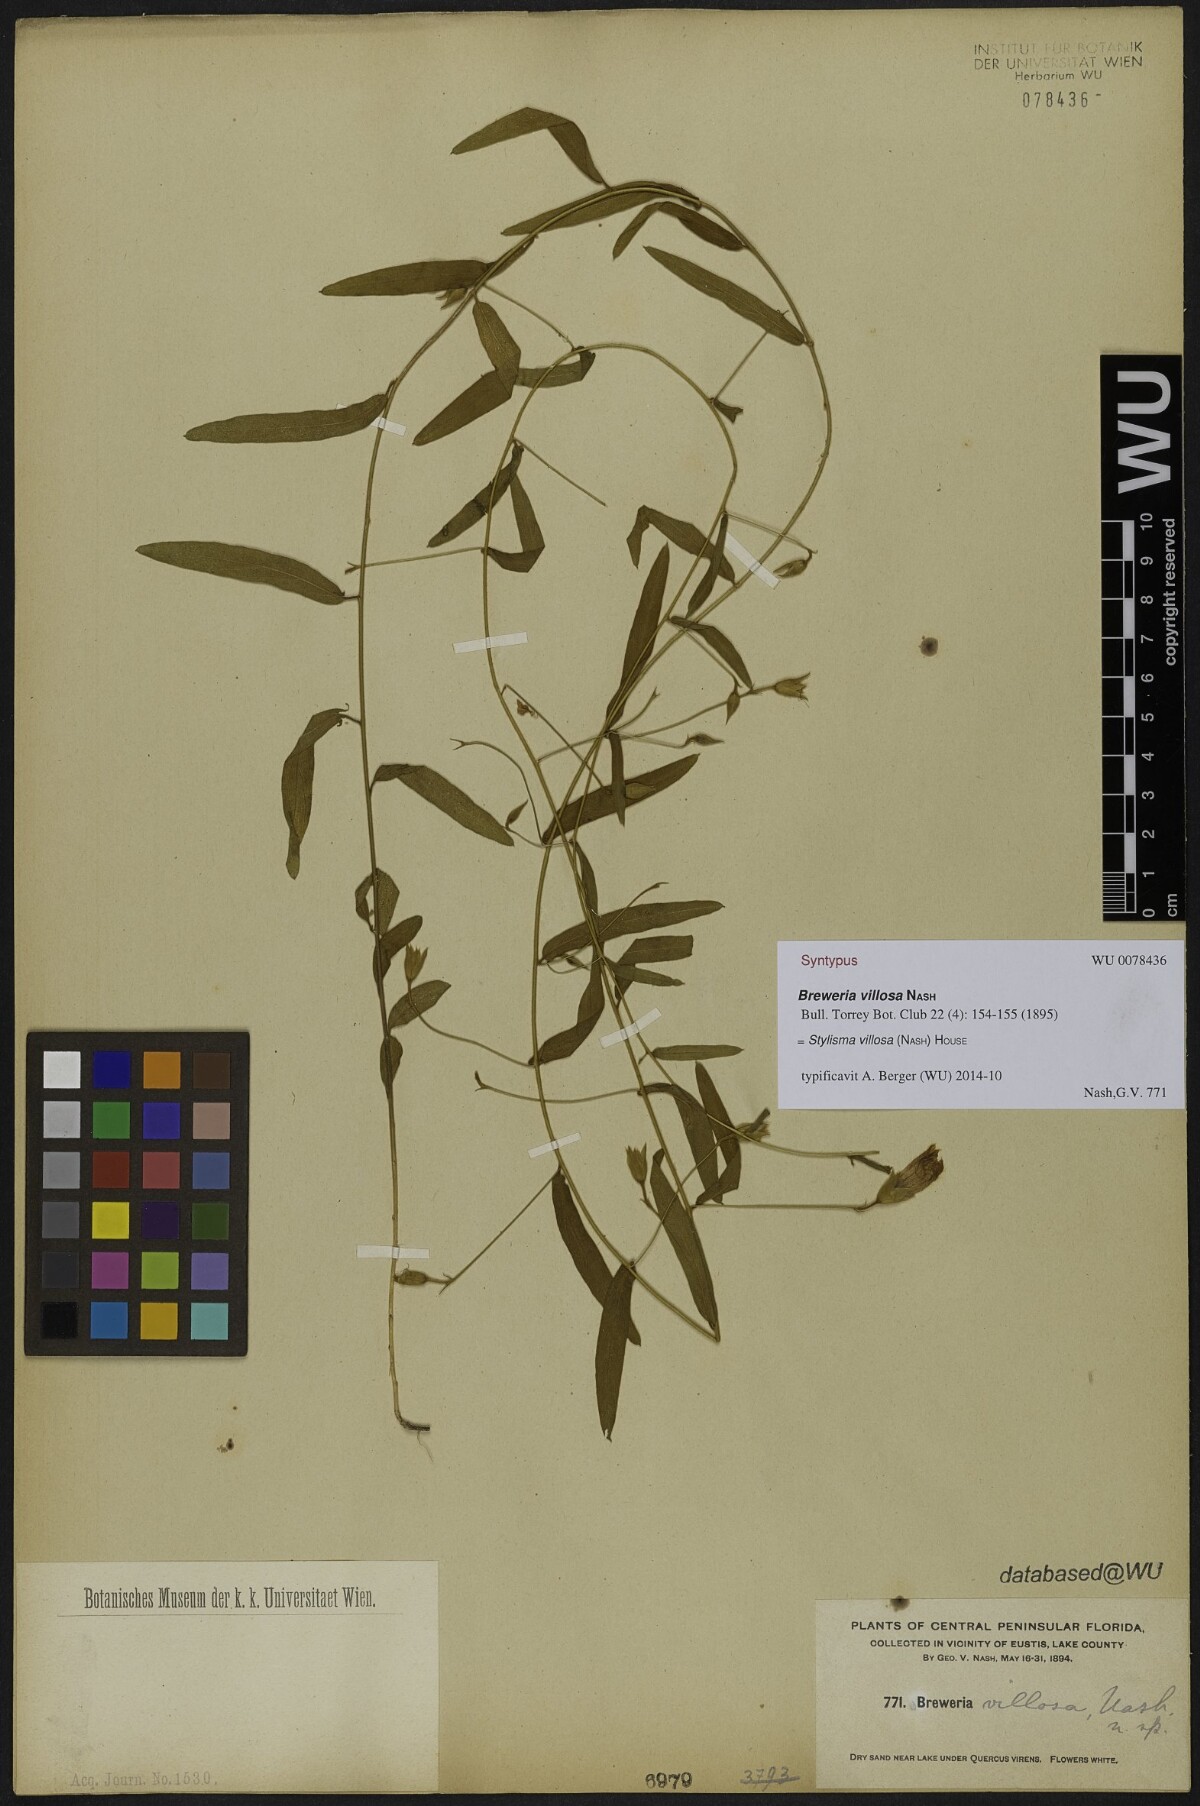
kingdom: Plantae
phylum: Tracheophyta
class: Magnoliopsida
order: Solanales
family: Convolvulaceae
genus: Stylisma
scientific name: Stylisma villosa
